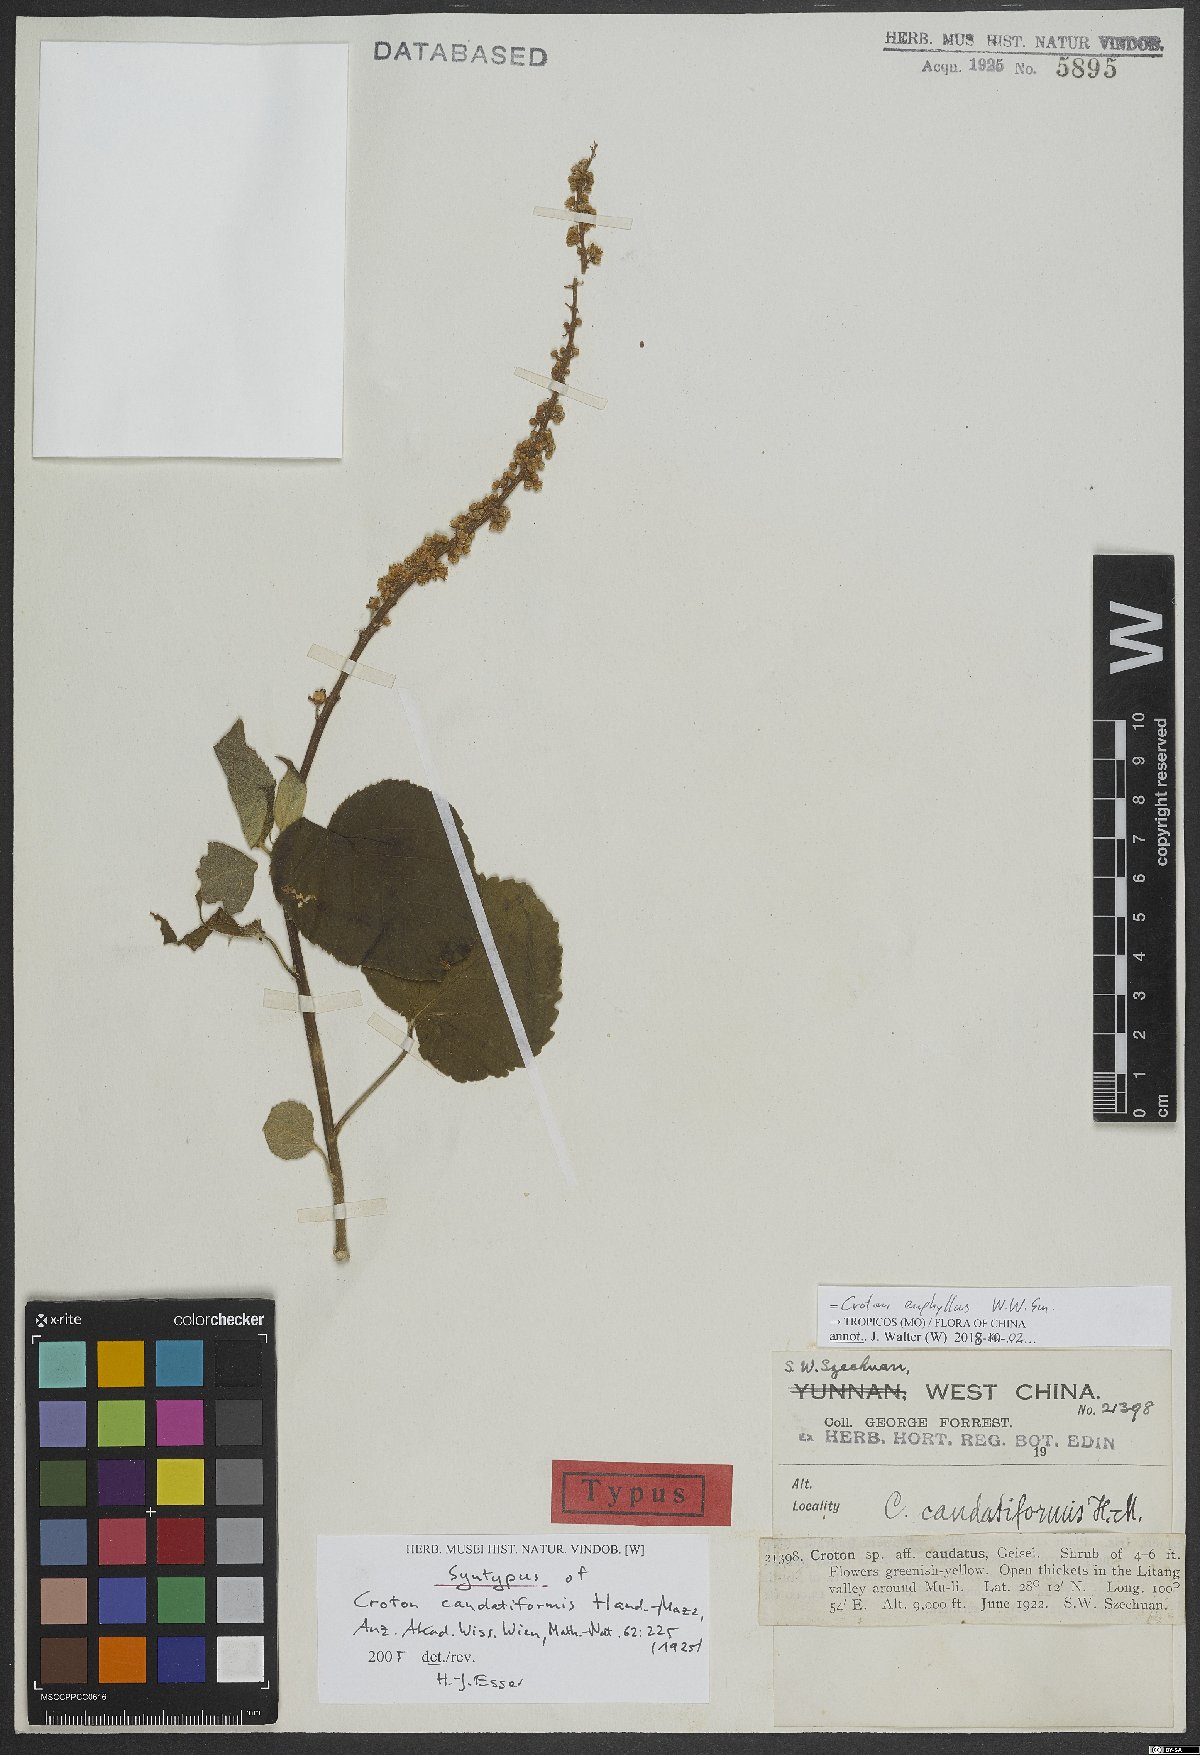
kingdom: Plantae
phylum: Tracheophyta
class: Magnoliopsida
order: Malpighiales
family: Euphorbiaceae
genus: Croton
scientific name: Croton euryphyllus
